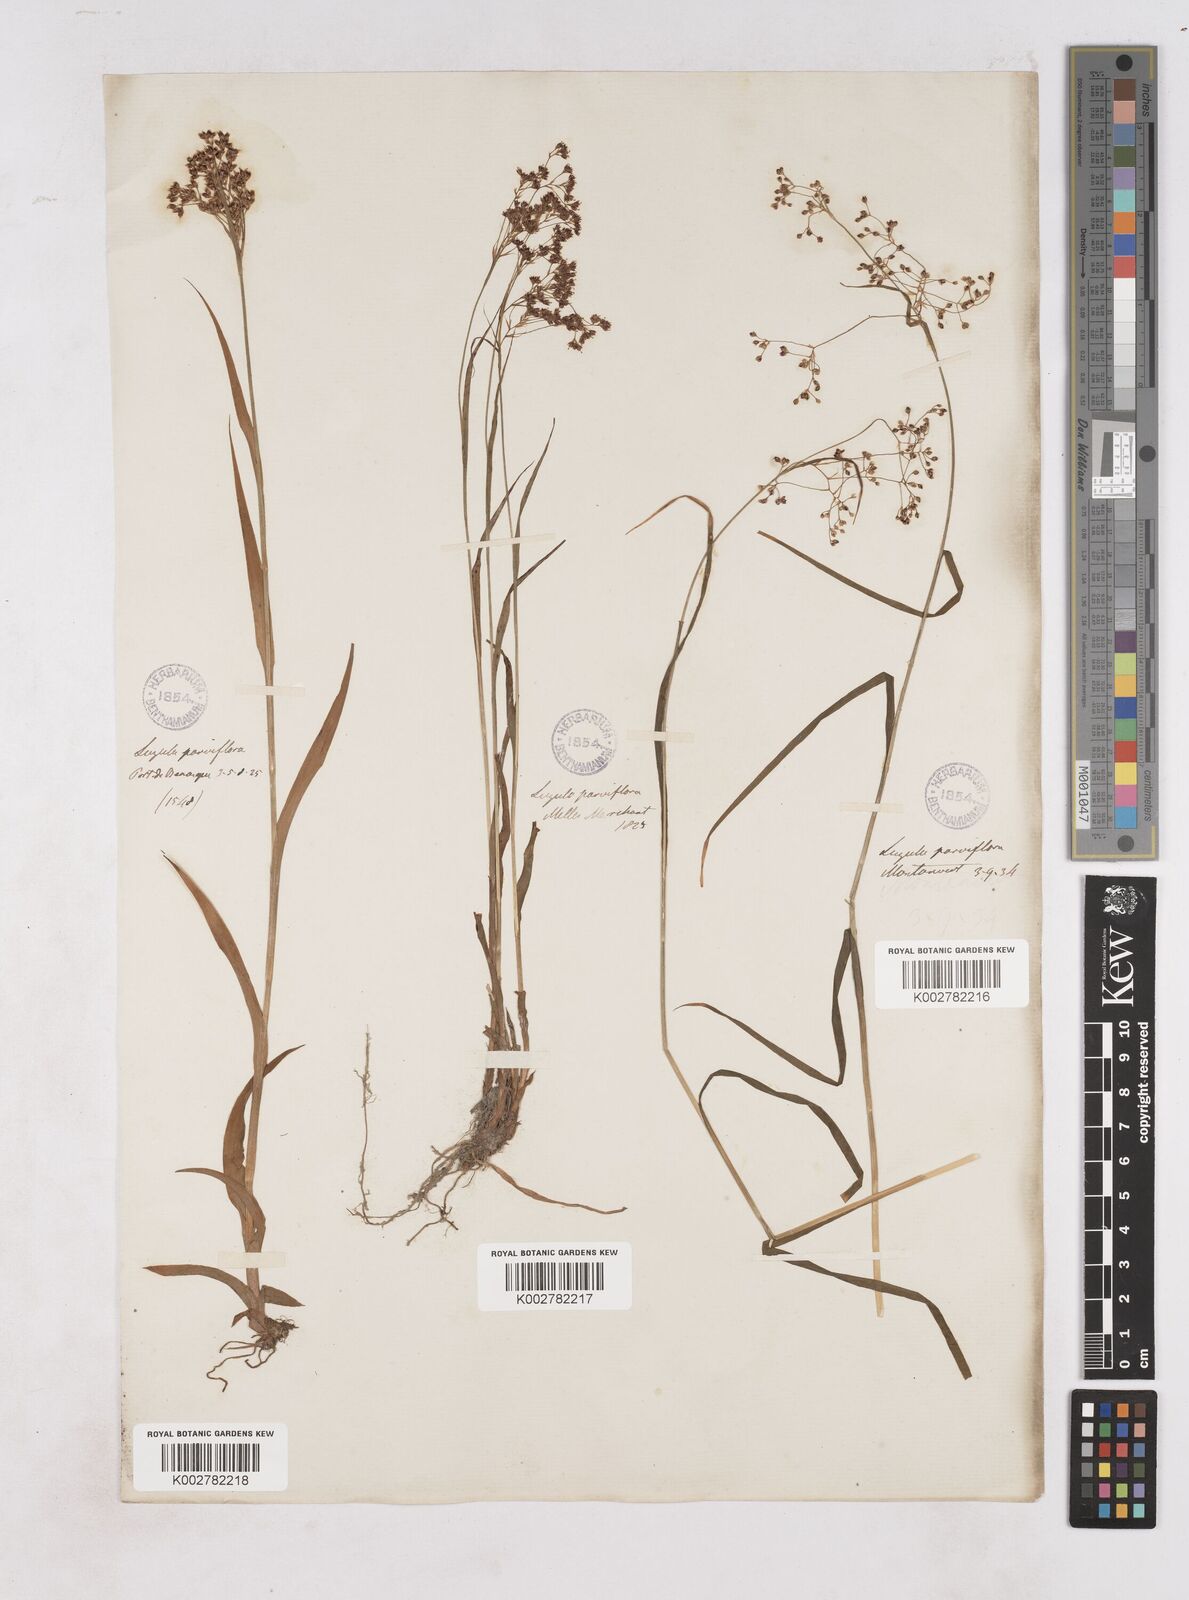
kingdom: Plantae
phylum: Tracheophyta
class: Liliopsida
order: Poales
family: Juncaceae
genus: Luzula
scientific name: Luzula parviflora
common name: Millet woodrush
